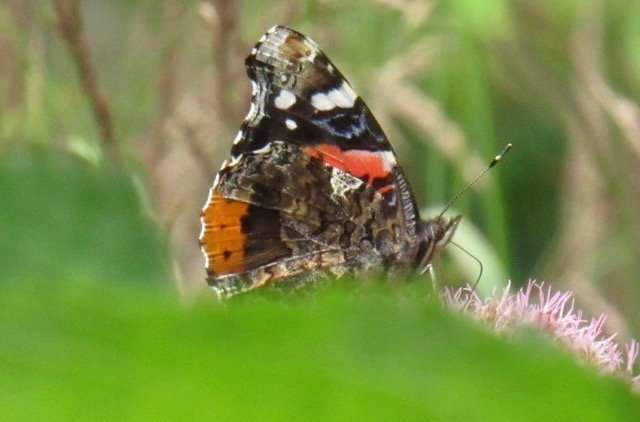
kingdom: Animalia
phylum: Arthropoda
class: Insecta
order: Lepidoptera
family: Nymphalidae
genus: Vanessa
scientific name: Vanessa atalanta
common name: Red Admiral
